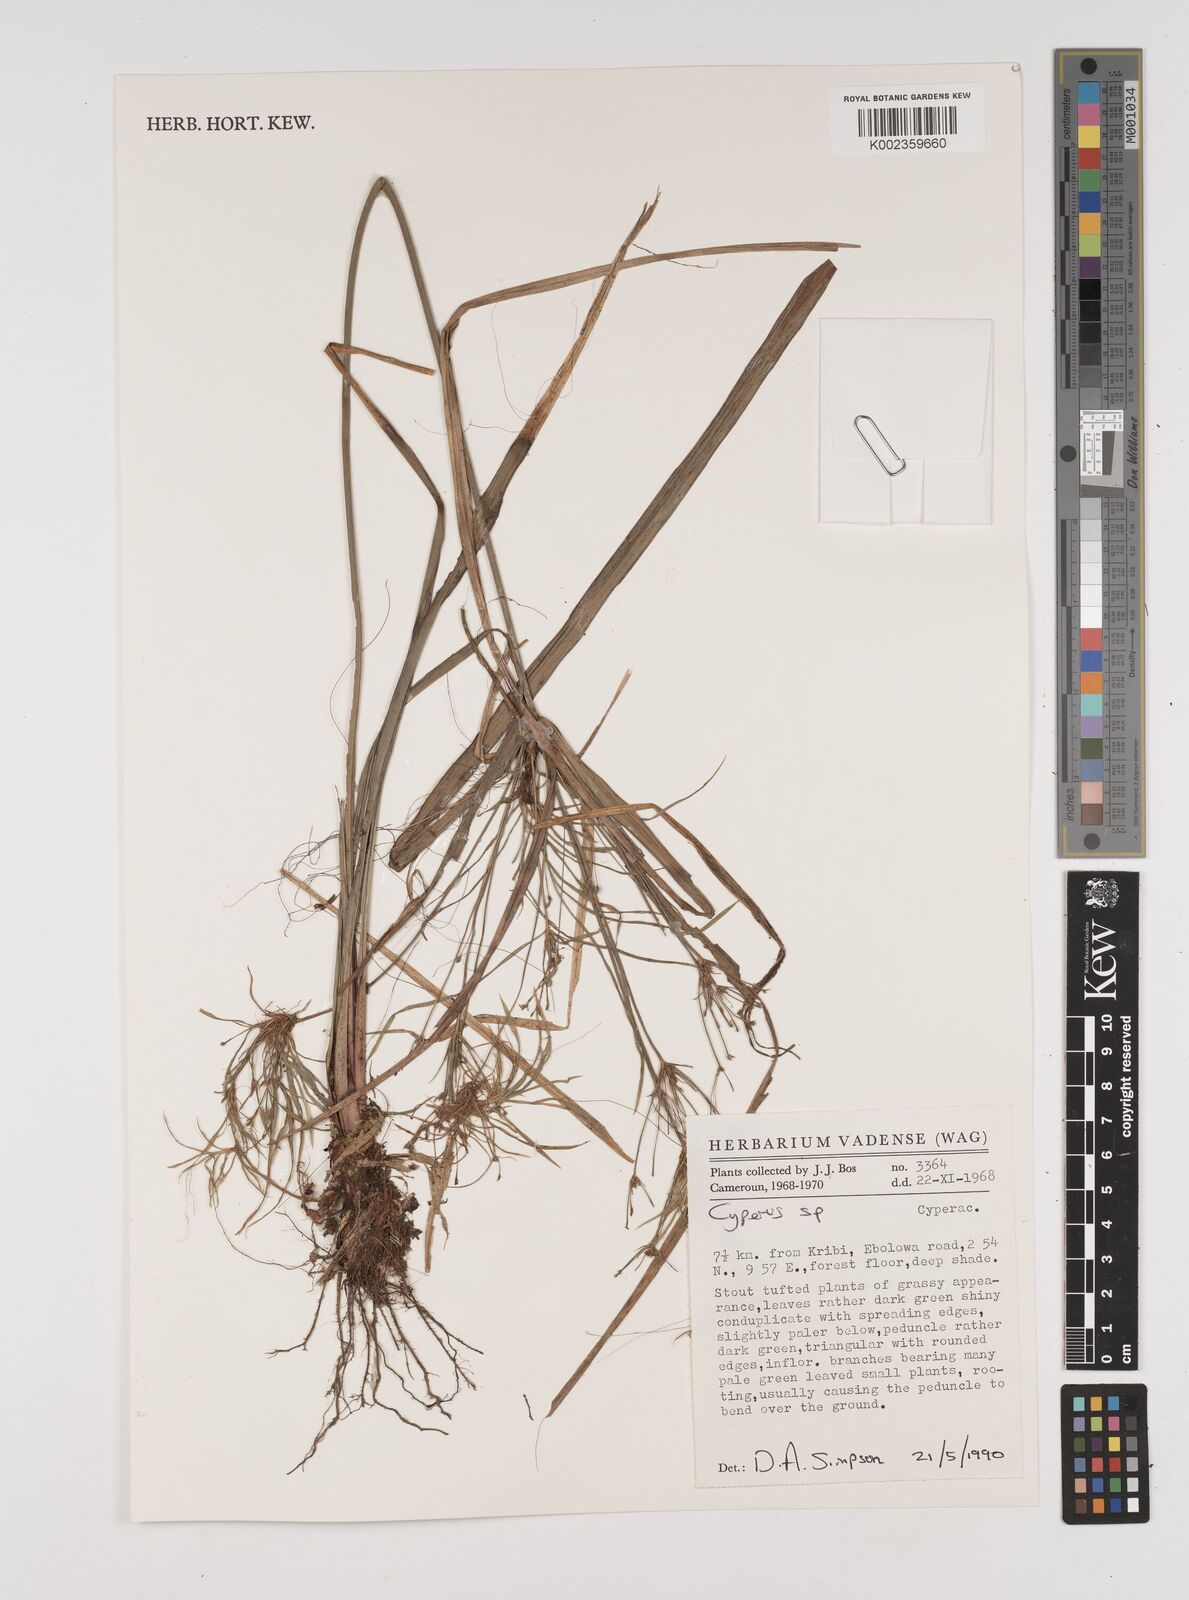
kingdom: Plantae
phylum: Tracheophyta
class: Liliopsida
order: Poales
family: Cyperaceae
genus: Cyperus
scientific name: Cyperus
